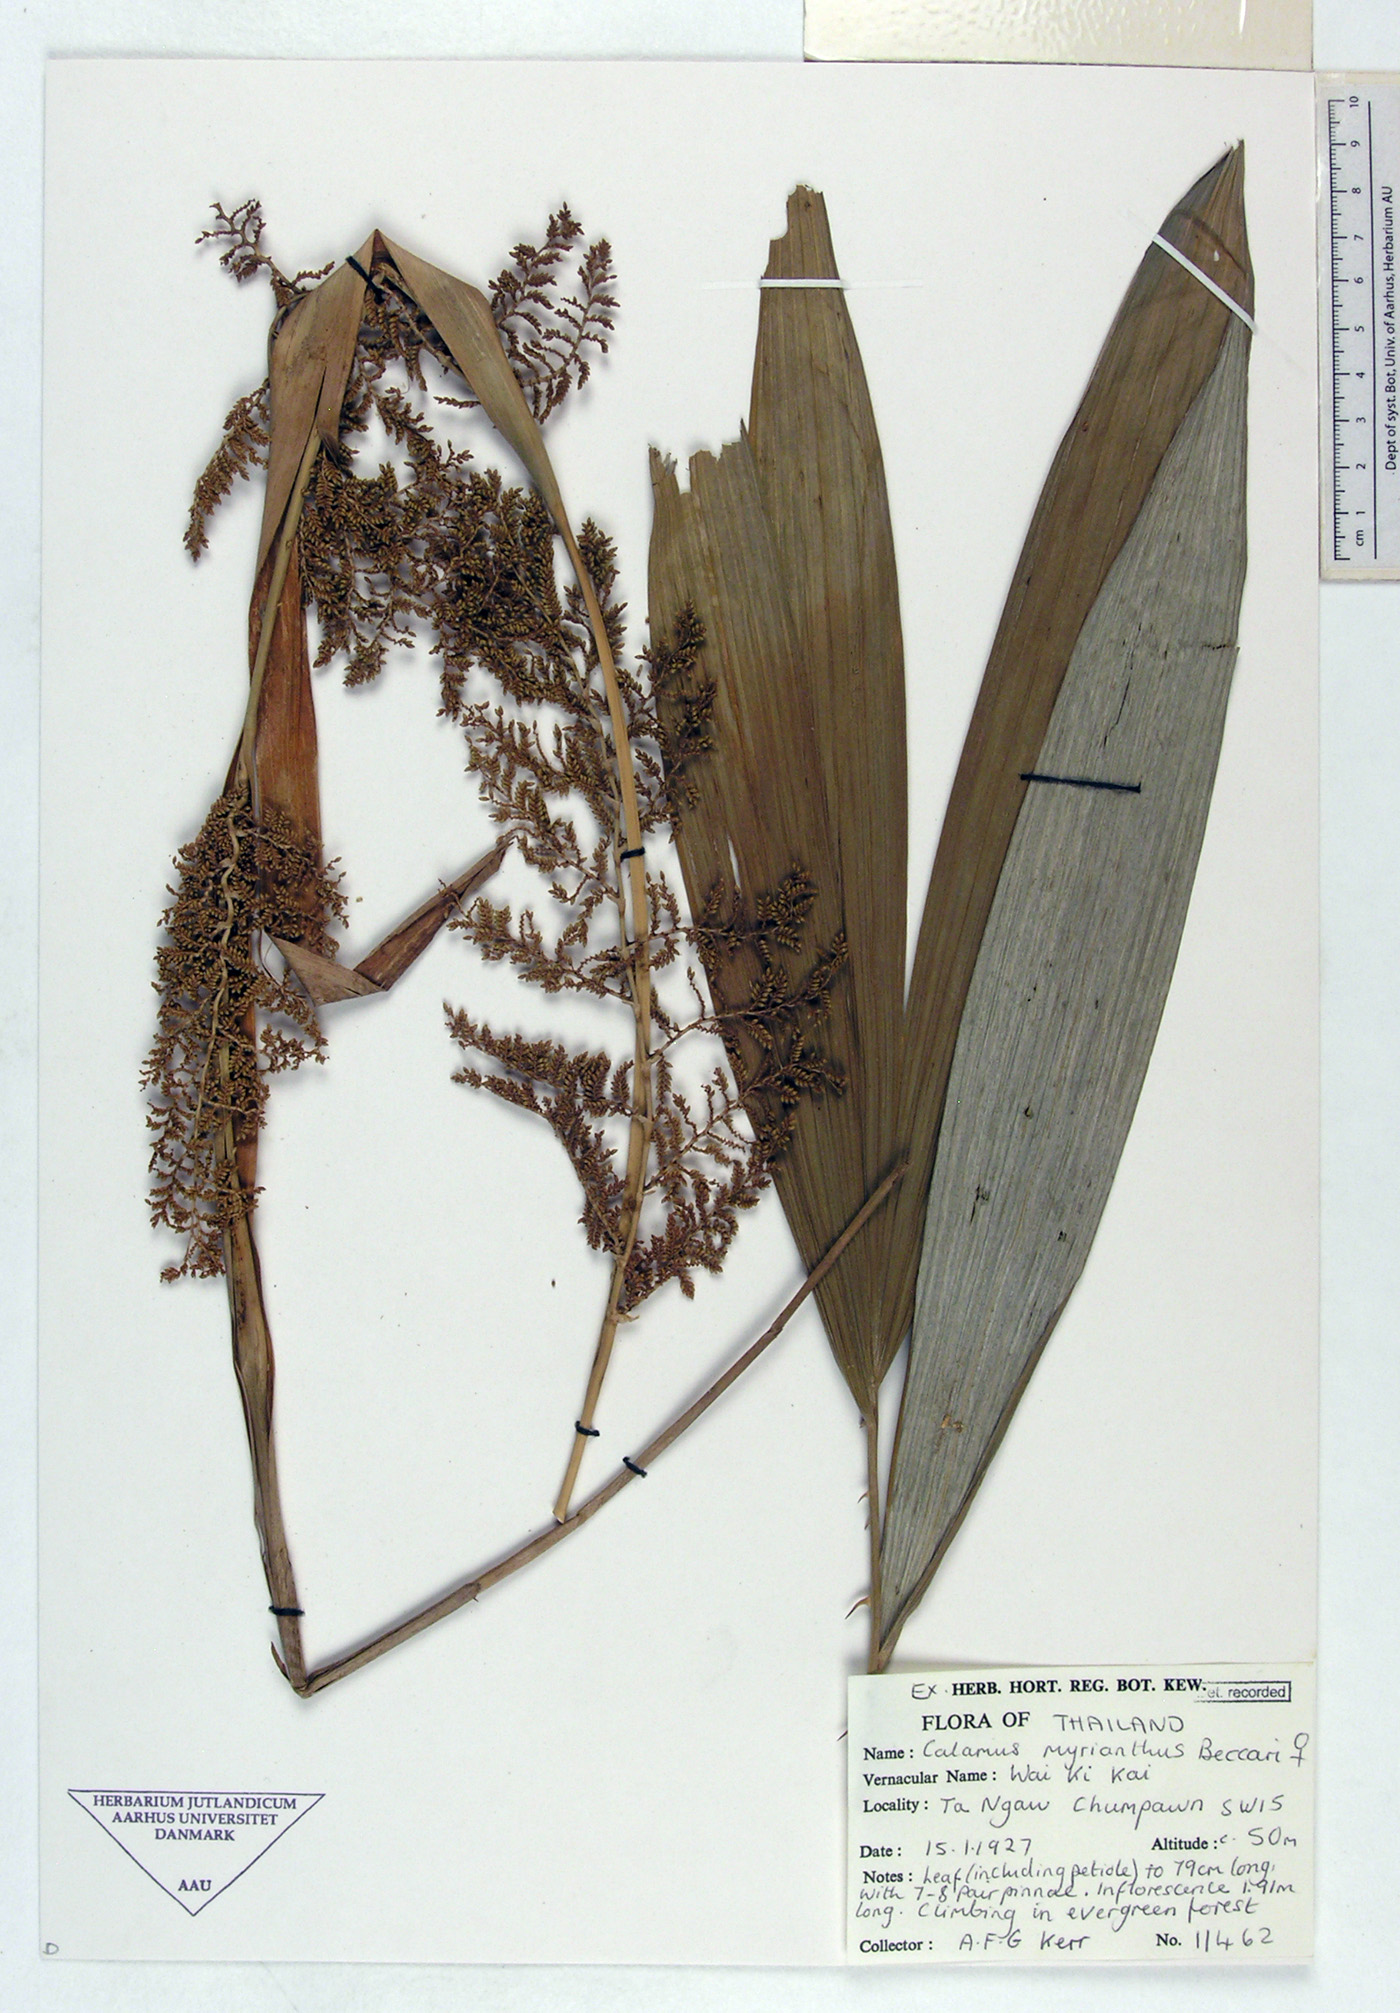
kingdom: Plantae
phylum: Tracheophyta
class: Liliopsida
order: Arecales
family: Arecaceae
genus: Calamus
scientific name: Calamus platyspathus
